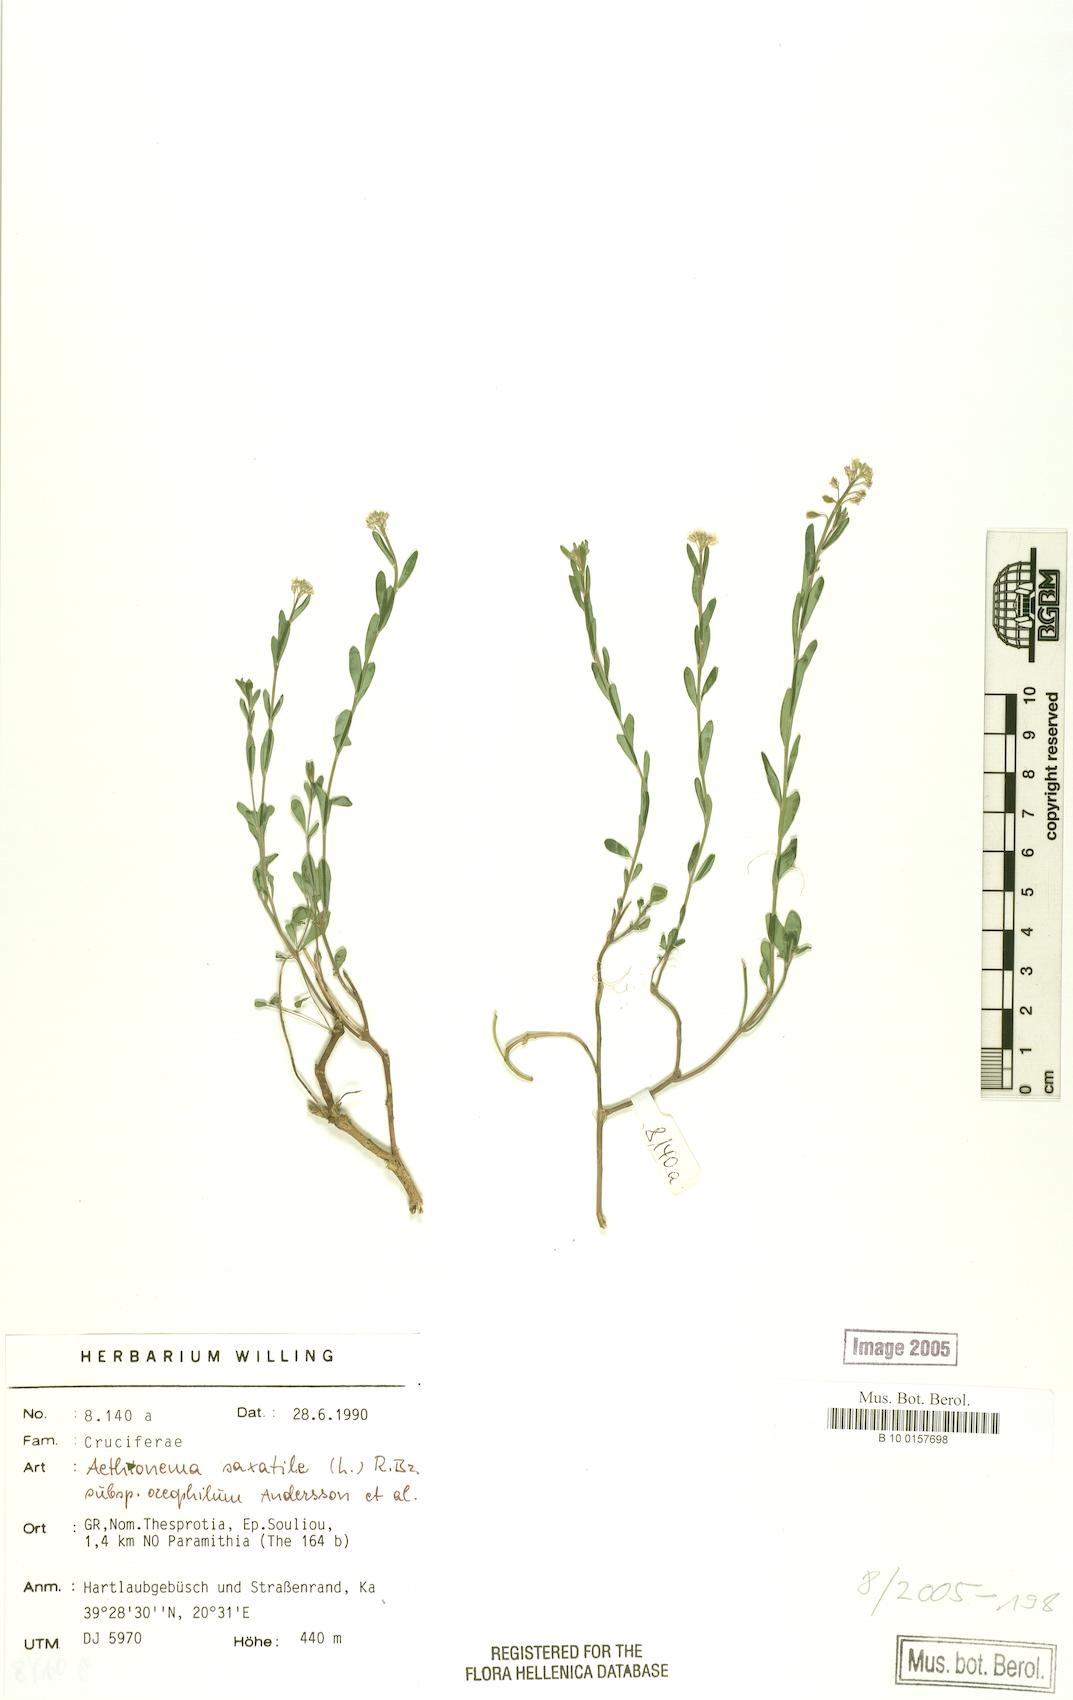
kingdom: Plantae
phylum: Tracheophyta
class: Magnoliopsida
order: Brassicales
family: Brassicaceae
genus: Aethionema
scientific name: Aethionema saxatile
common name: Burnt candytuft
